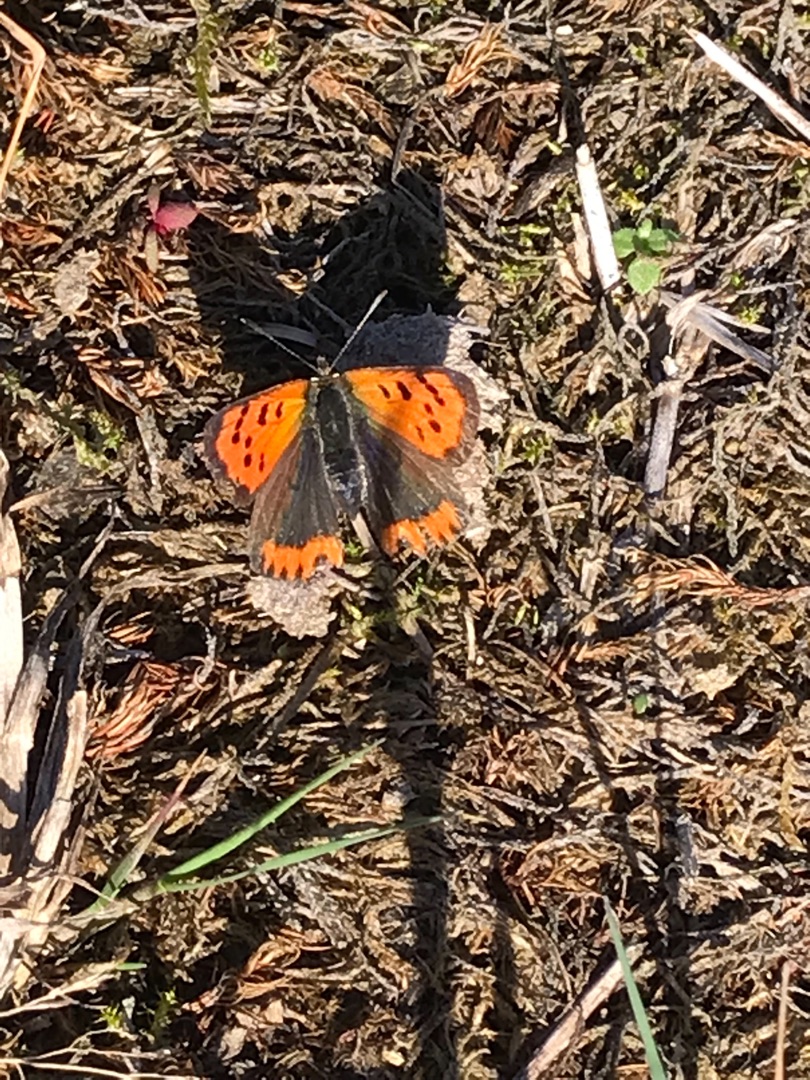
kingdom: Animalia
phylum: Arthropoda
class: Insecta
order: Lepidoptera
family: Lycaenidae
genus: Lycaena
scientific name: Lycaena phlaeas
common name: Lille ildfugl
